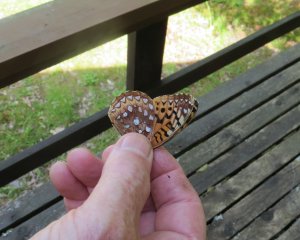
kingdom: Animalia
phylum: Arthropoda
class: Insecta
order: Lepidoptera
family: Nymphalidae
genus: Speyeria
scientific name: Speyeria cybele
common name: Great Spangled Fritillary
